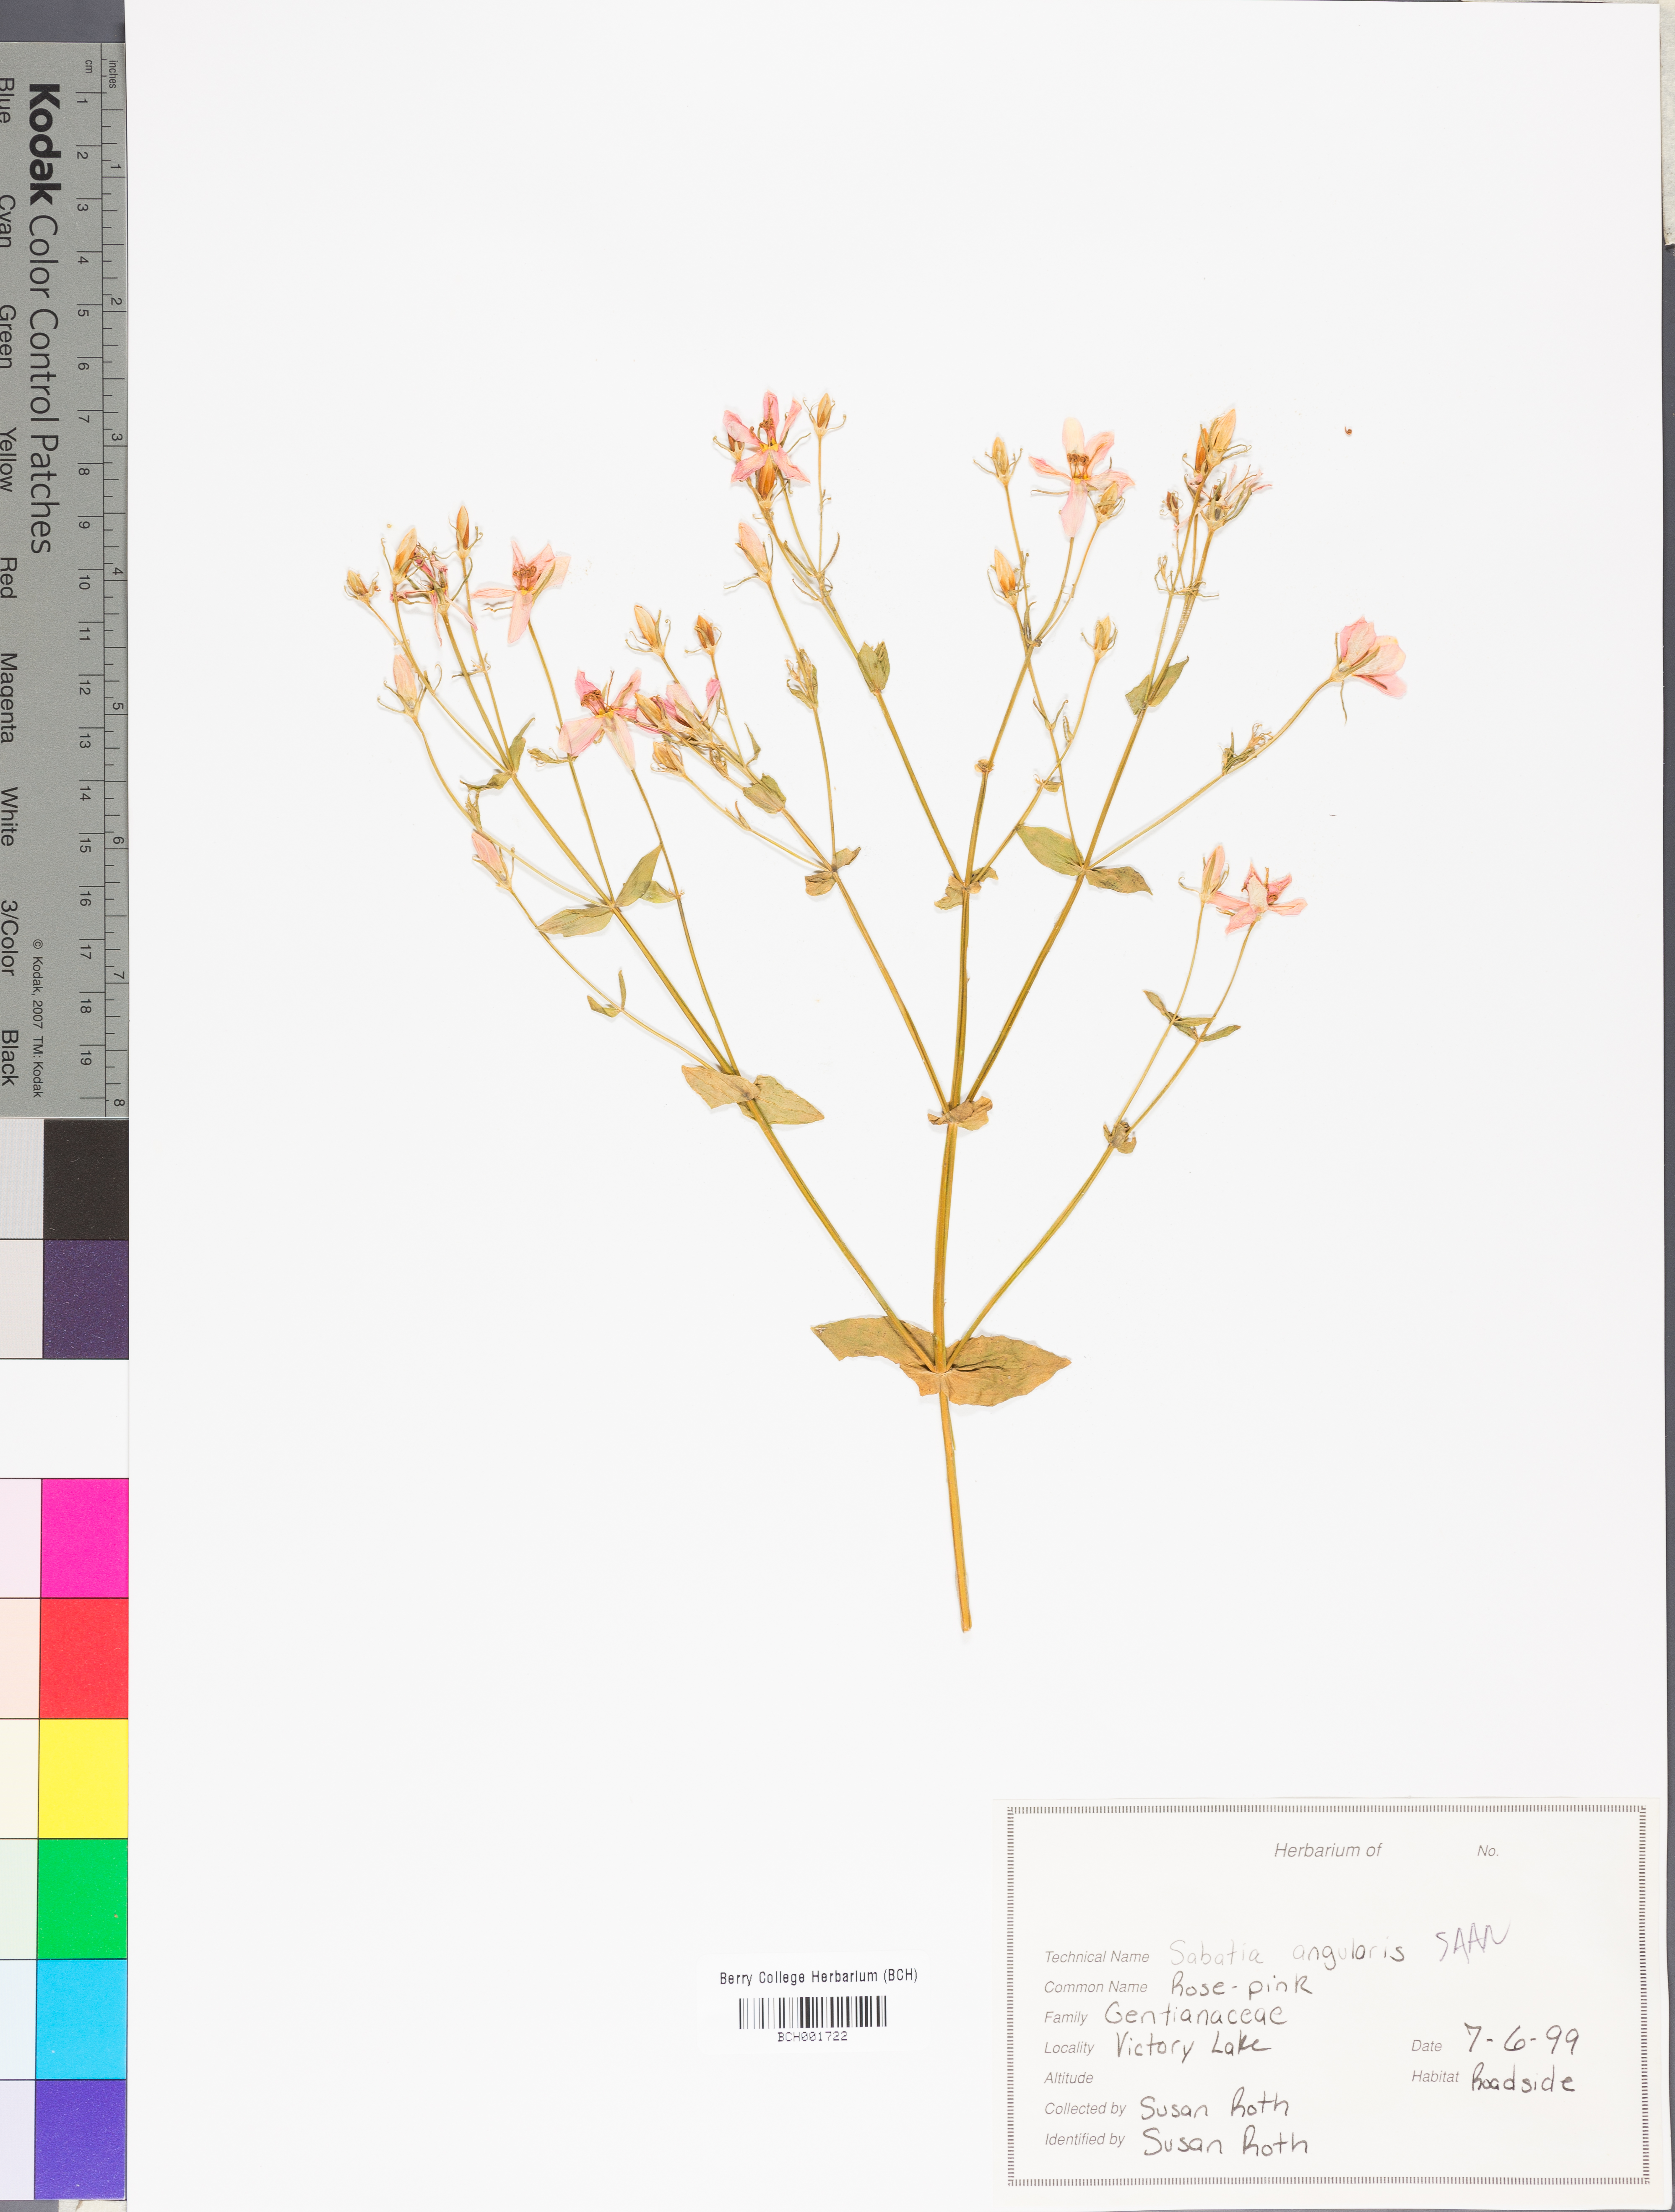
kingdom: Plantae
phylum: Tracheophyta
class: Magnoliopsida
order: Gentianales
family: Gentianaceae
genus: Sabatia
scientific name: Sabatia angularis
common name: Rose-pink
